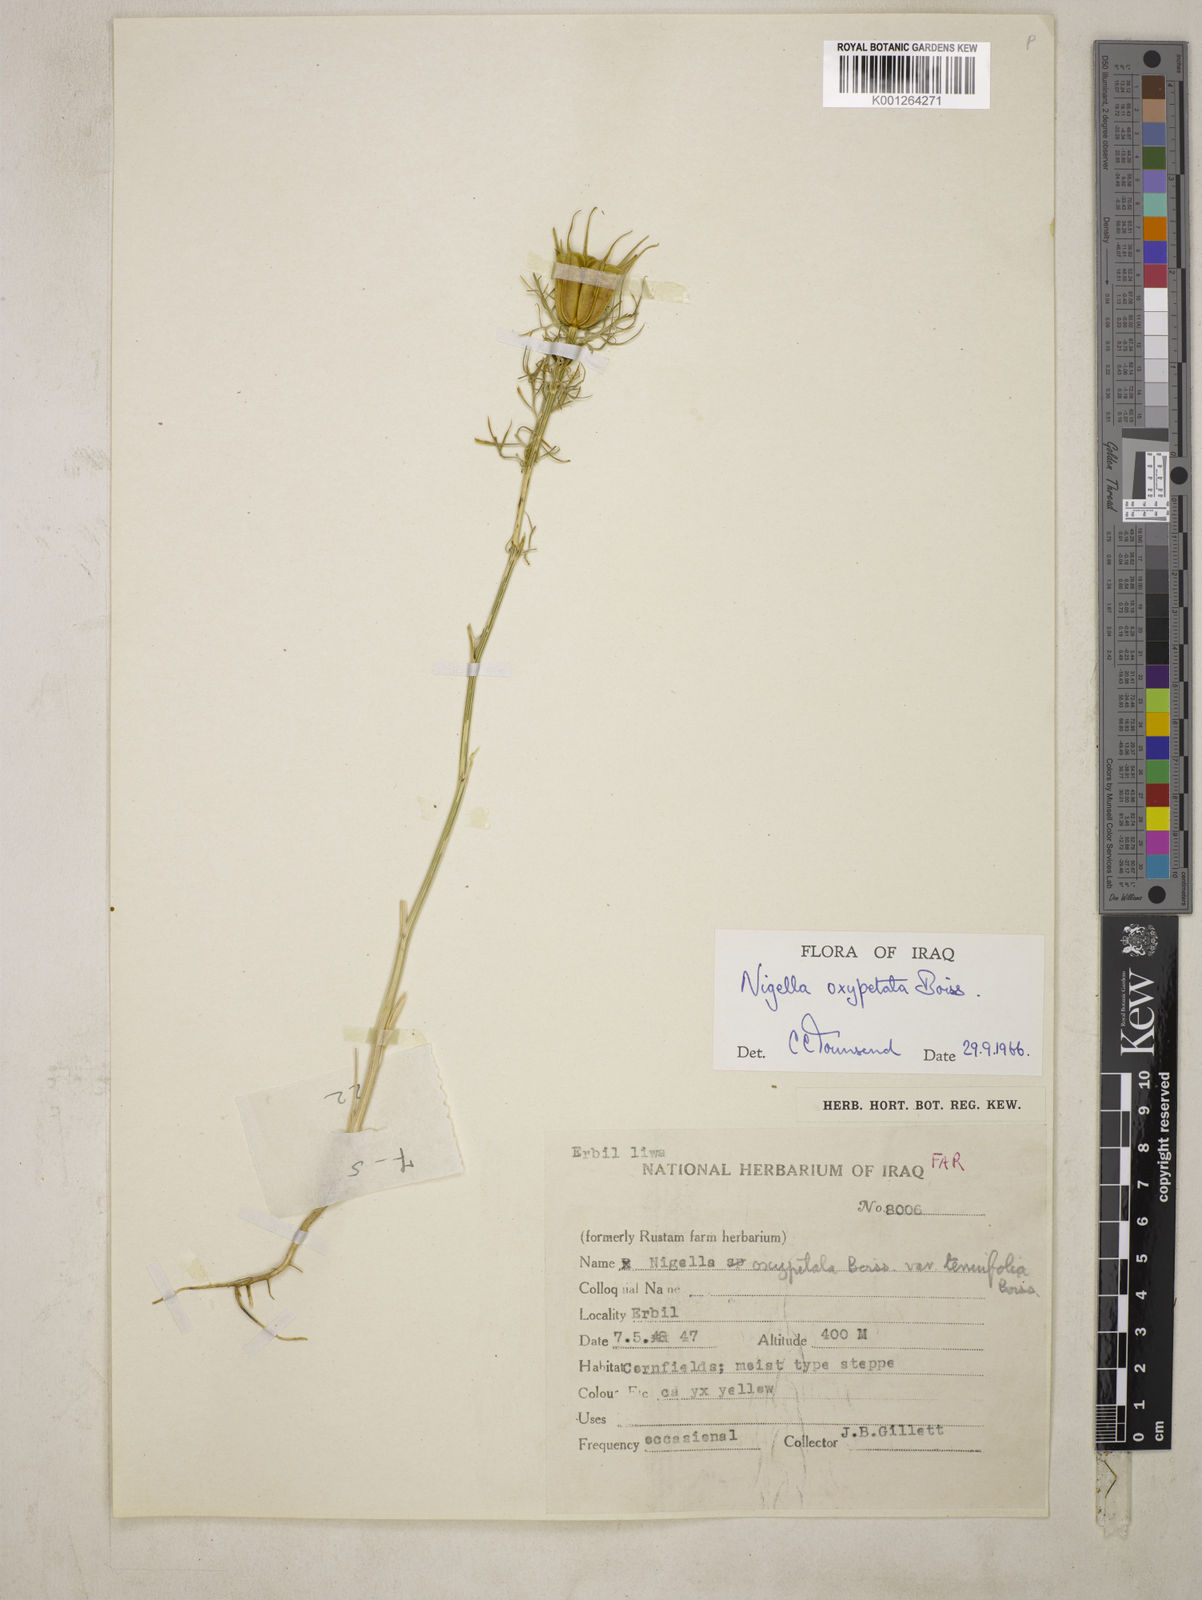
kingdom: Plantae
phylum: Tracheophyta
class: Magnoliopsida
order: Ranunculales
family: Ranunculaceae
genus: Nigella
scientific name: Nigella oxypetala
